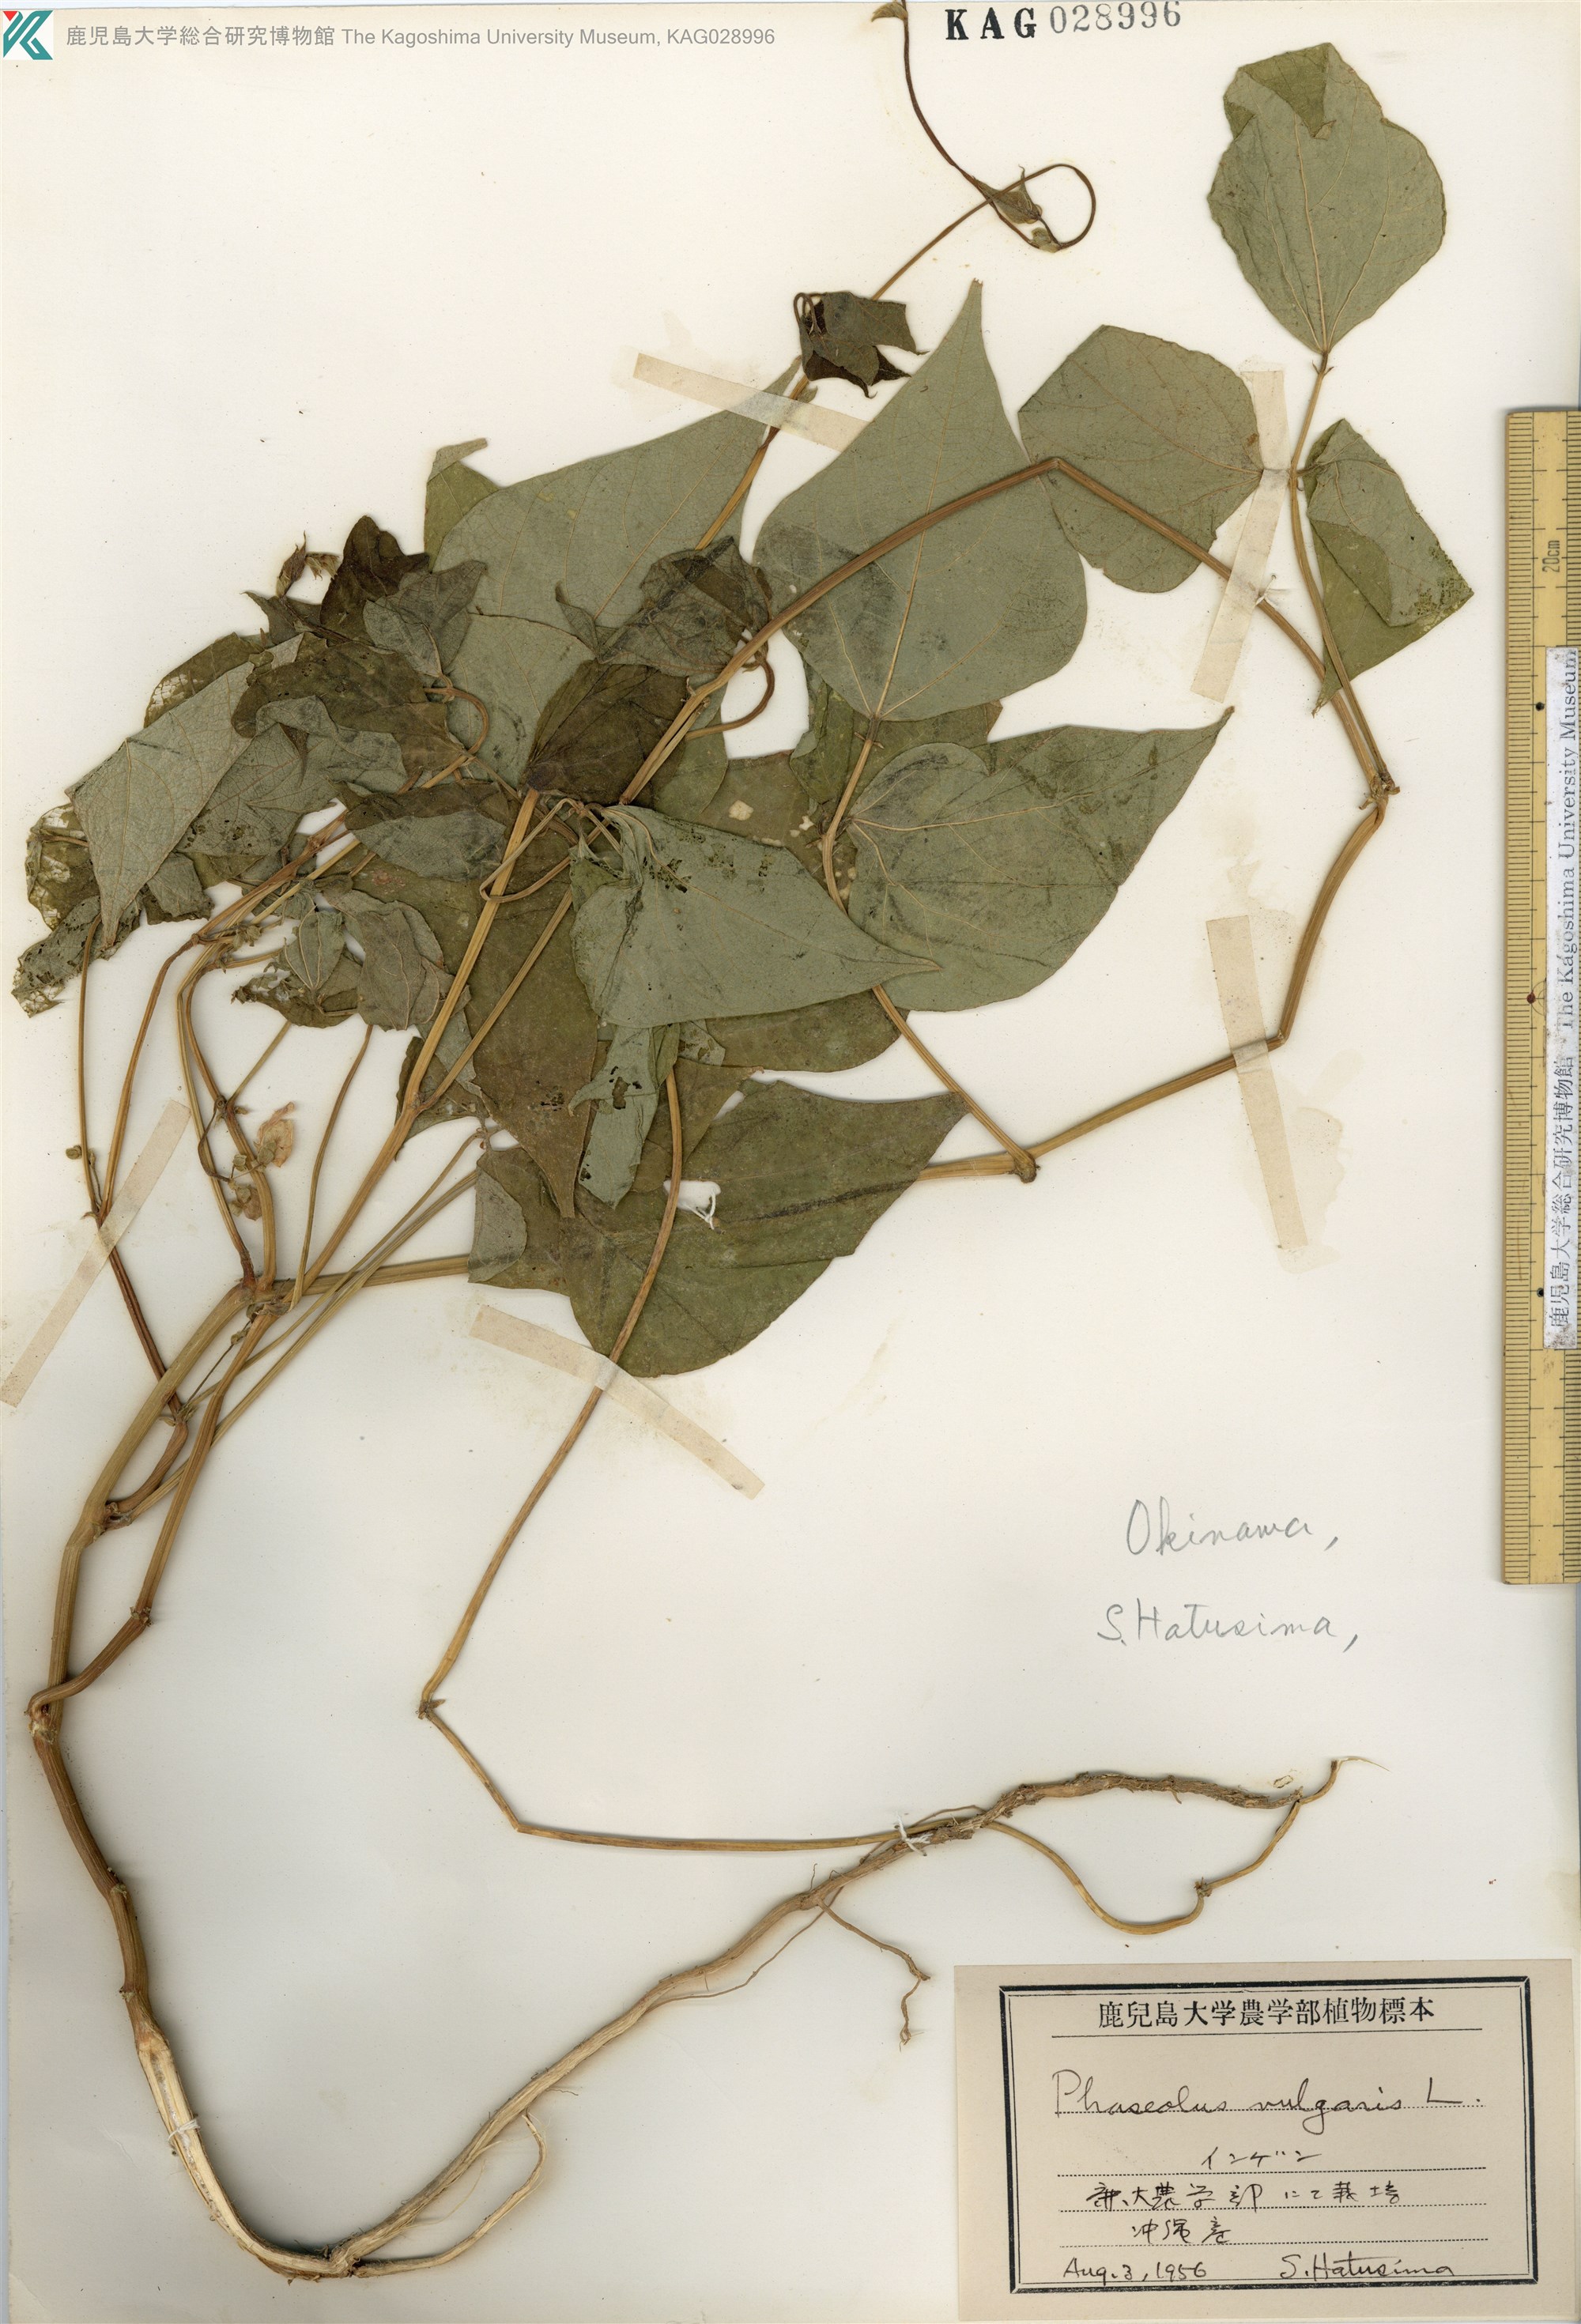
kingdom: Plantae
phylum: Tracheophyta
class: Magnoliopsida
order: Fabales
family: Fabaceae
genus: Phaseolus
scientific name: Phaseolus vulgaris
